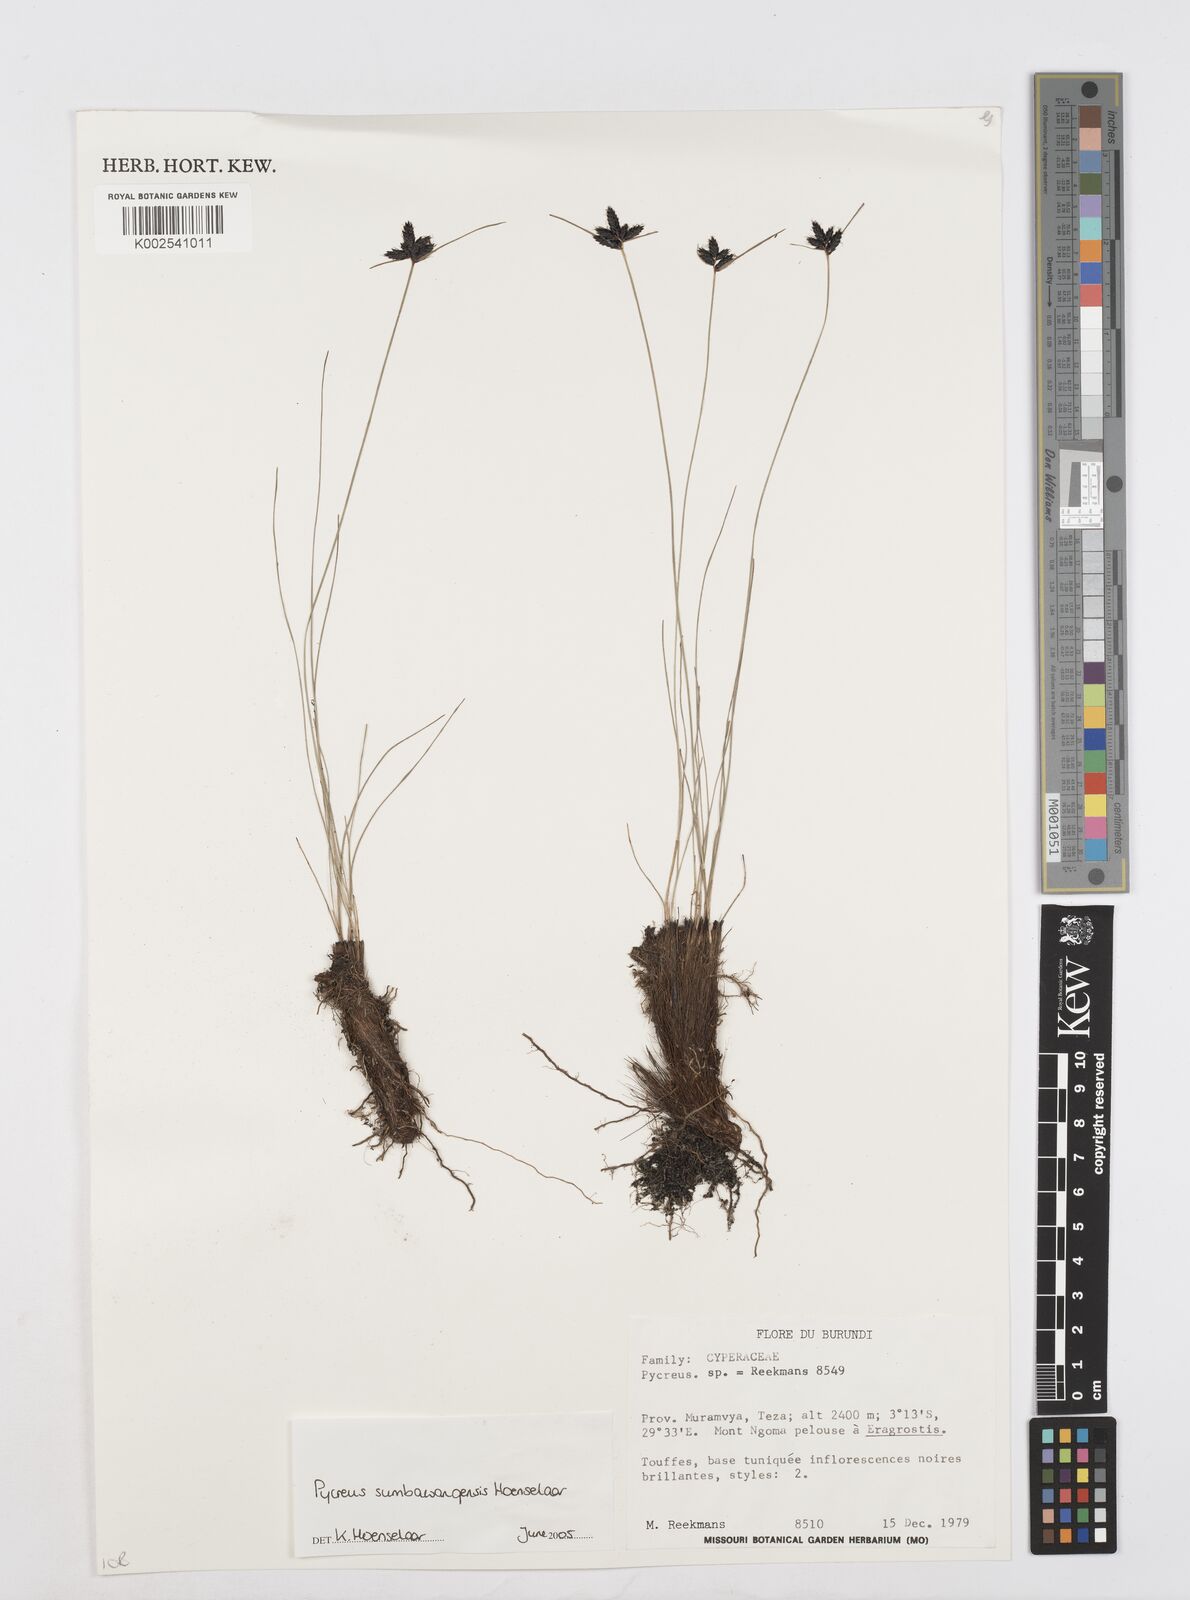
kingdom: Plantae
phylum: Tracheophyta
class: Liliopsida
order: Poales
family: Cyperaceae
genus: Cyperus
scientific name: Cyperus nigricans
